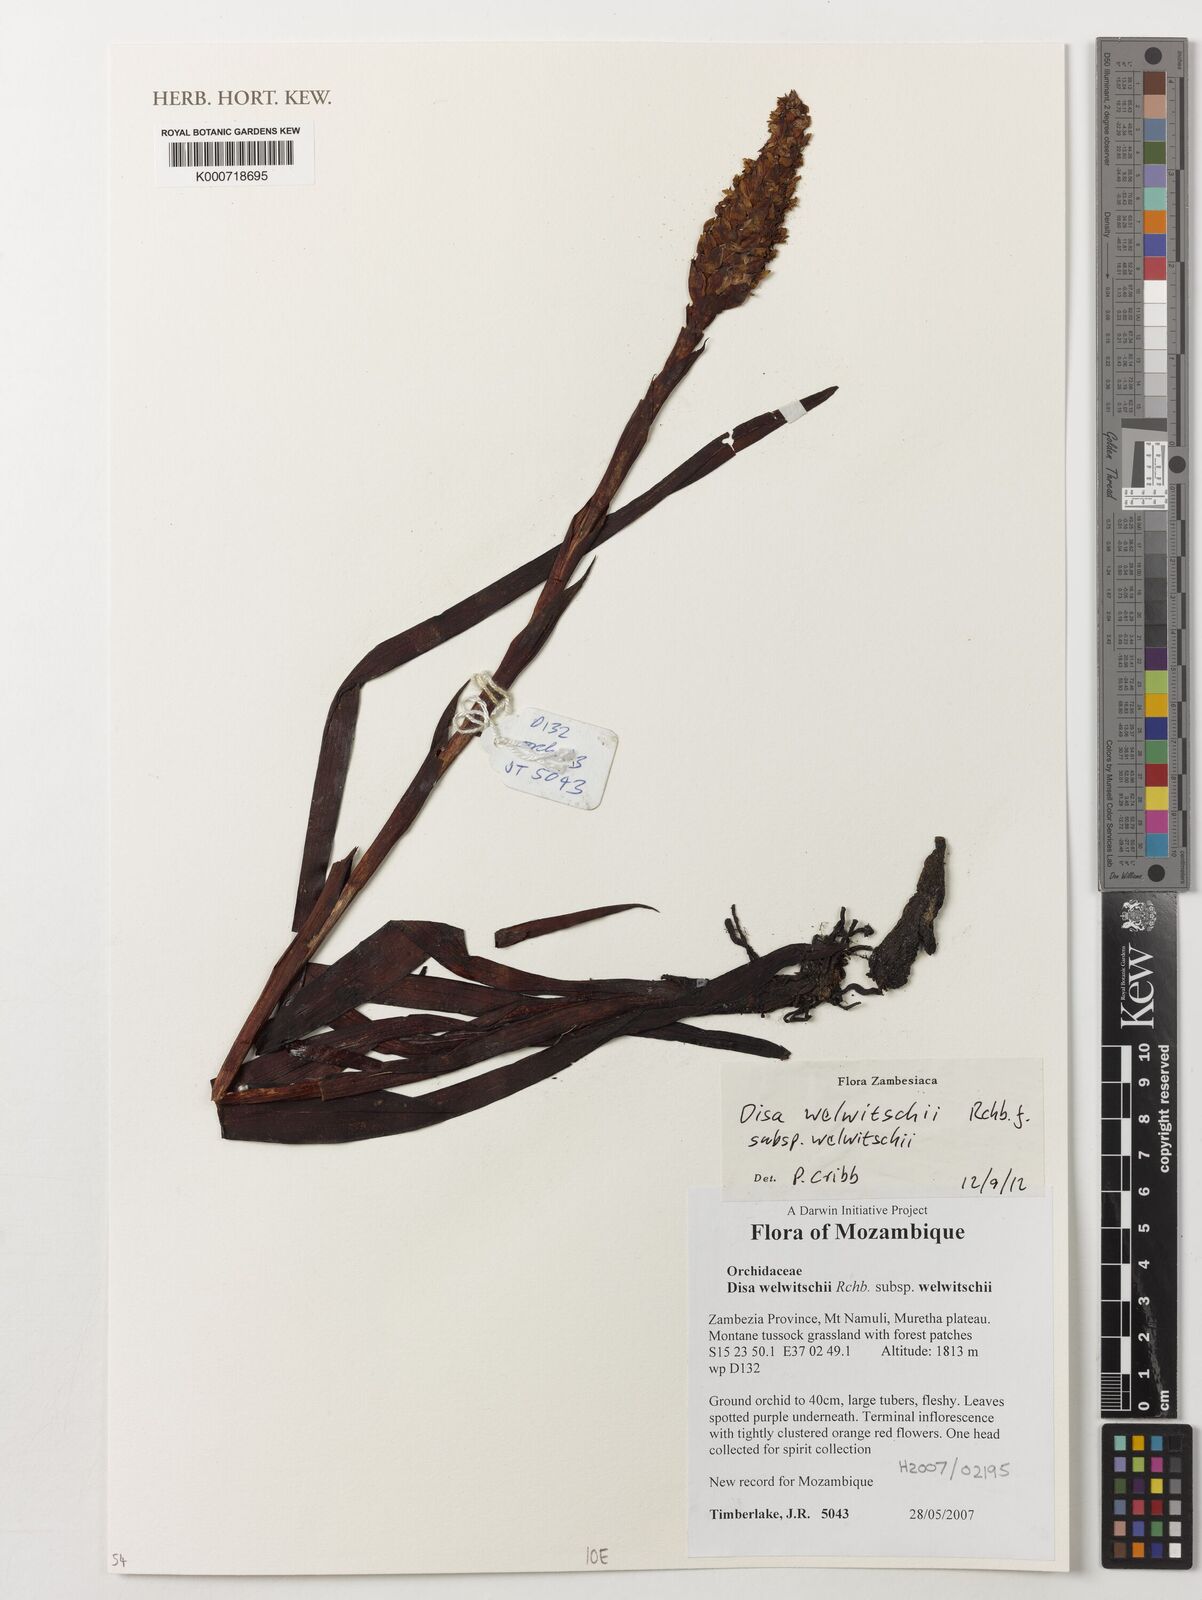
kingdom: Plantae
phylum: Tracheophyta
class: Liliopsida
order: Asparagales
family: Orchidaceae
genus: Disa
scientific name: Disa welwitschii
